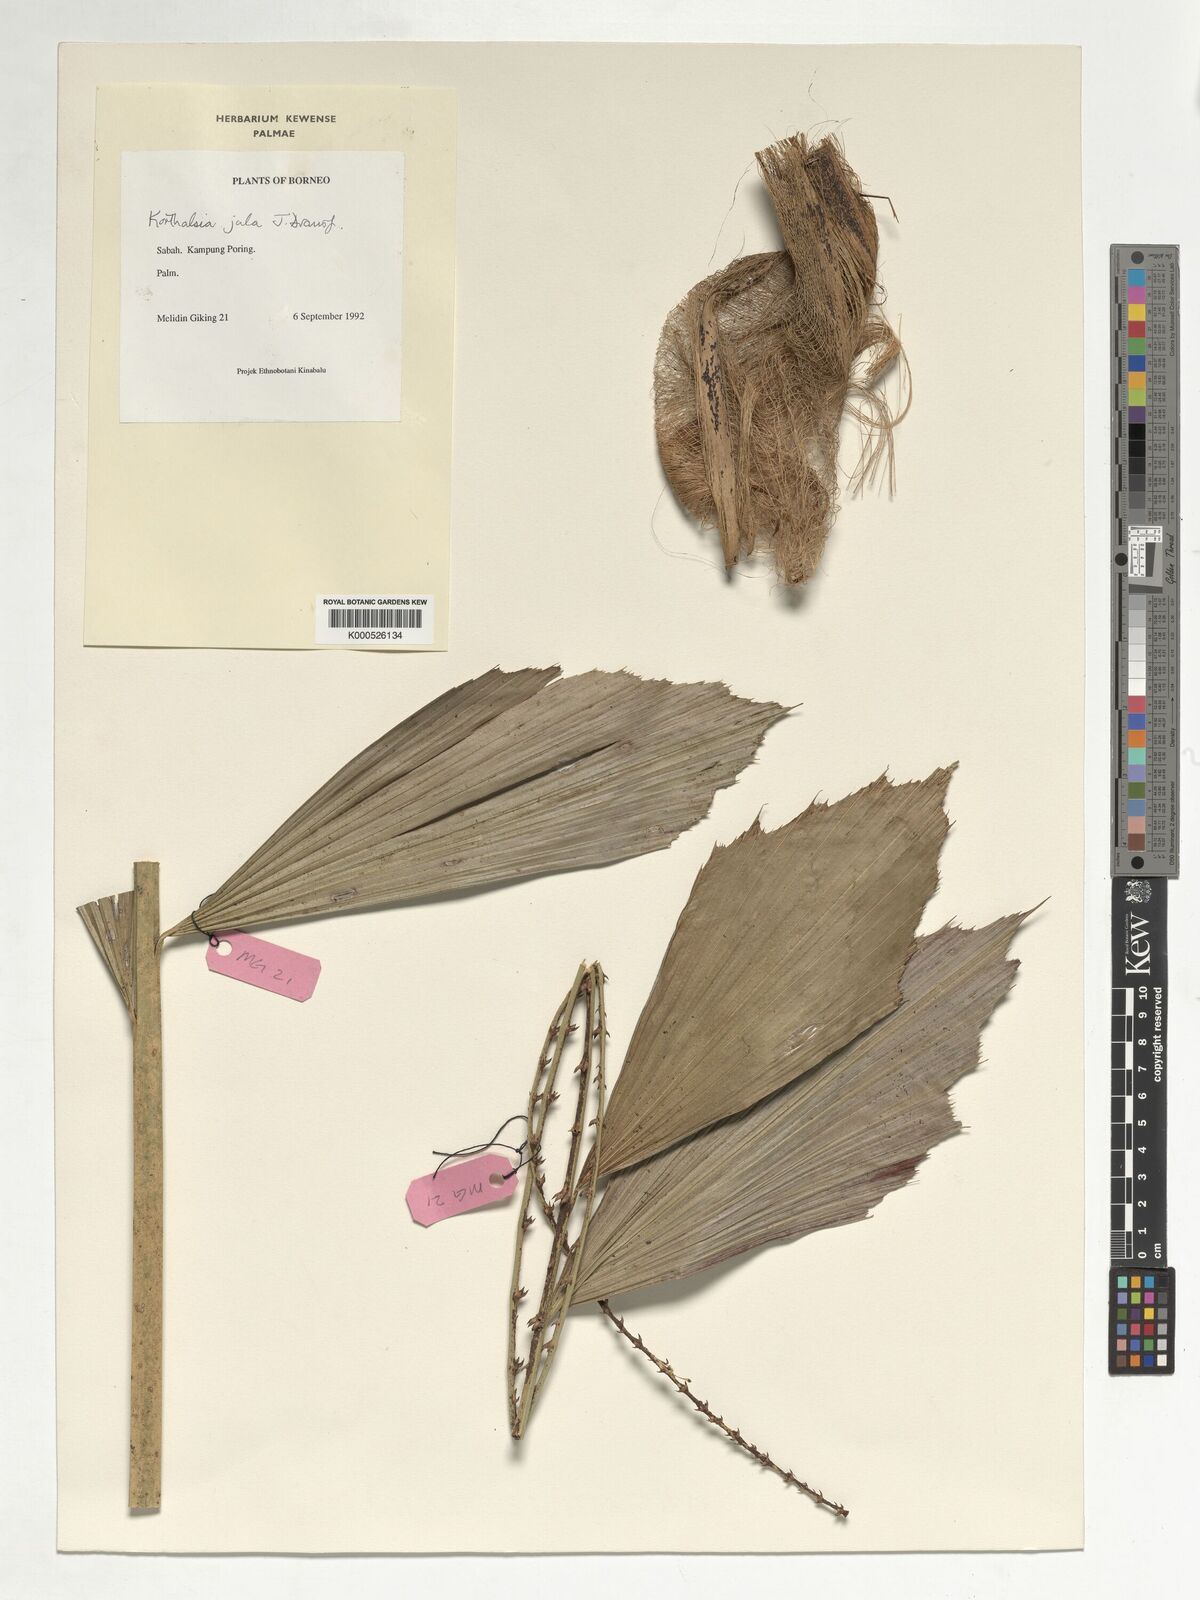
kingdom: Plantae
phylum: Tracheophyta
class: Liliopsida
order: Arecales
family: Arecaceae
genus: Korthalsia
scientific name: Korthalsia jala
